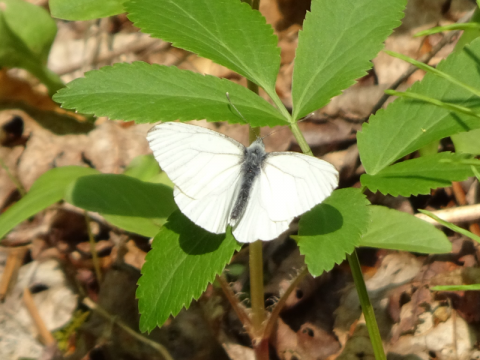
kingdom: Animalia
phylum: Arthropoda
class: Insecta
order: Lepidoptera
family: Pieridae
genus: Pieris
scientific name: Pieris
